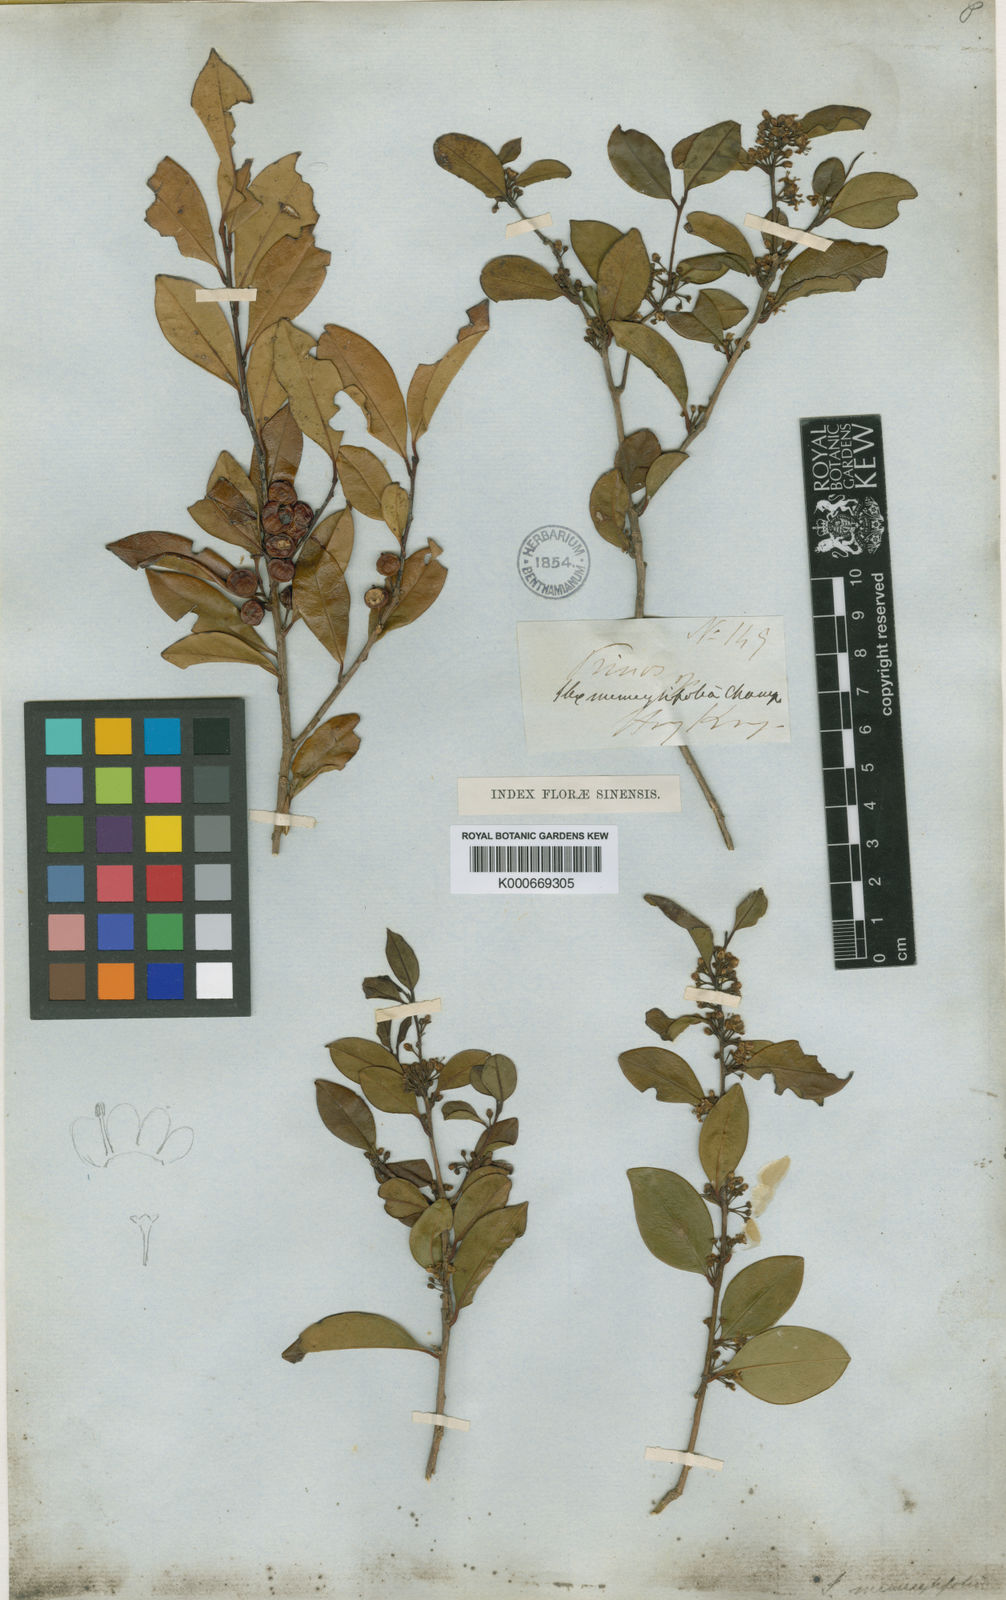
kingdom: Plantae
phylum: Tracheophyta
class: Magnoliopsida
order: Aquifoliales
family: Aquifoliaceae
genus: Ilex
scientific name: Ilex memecylifolia
